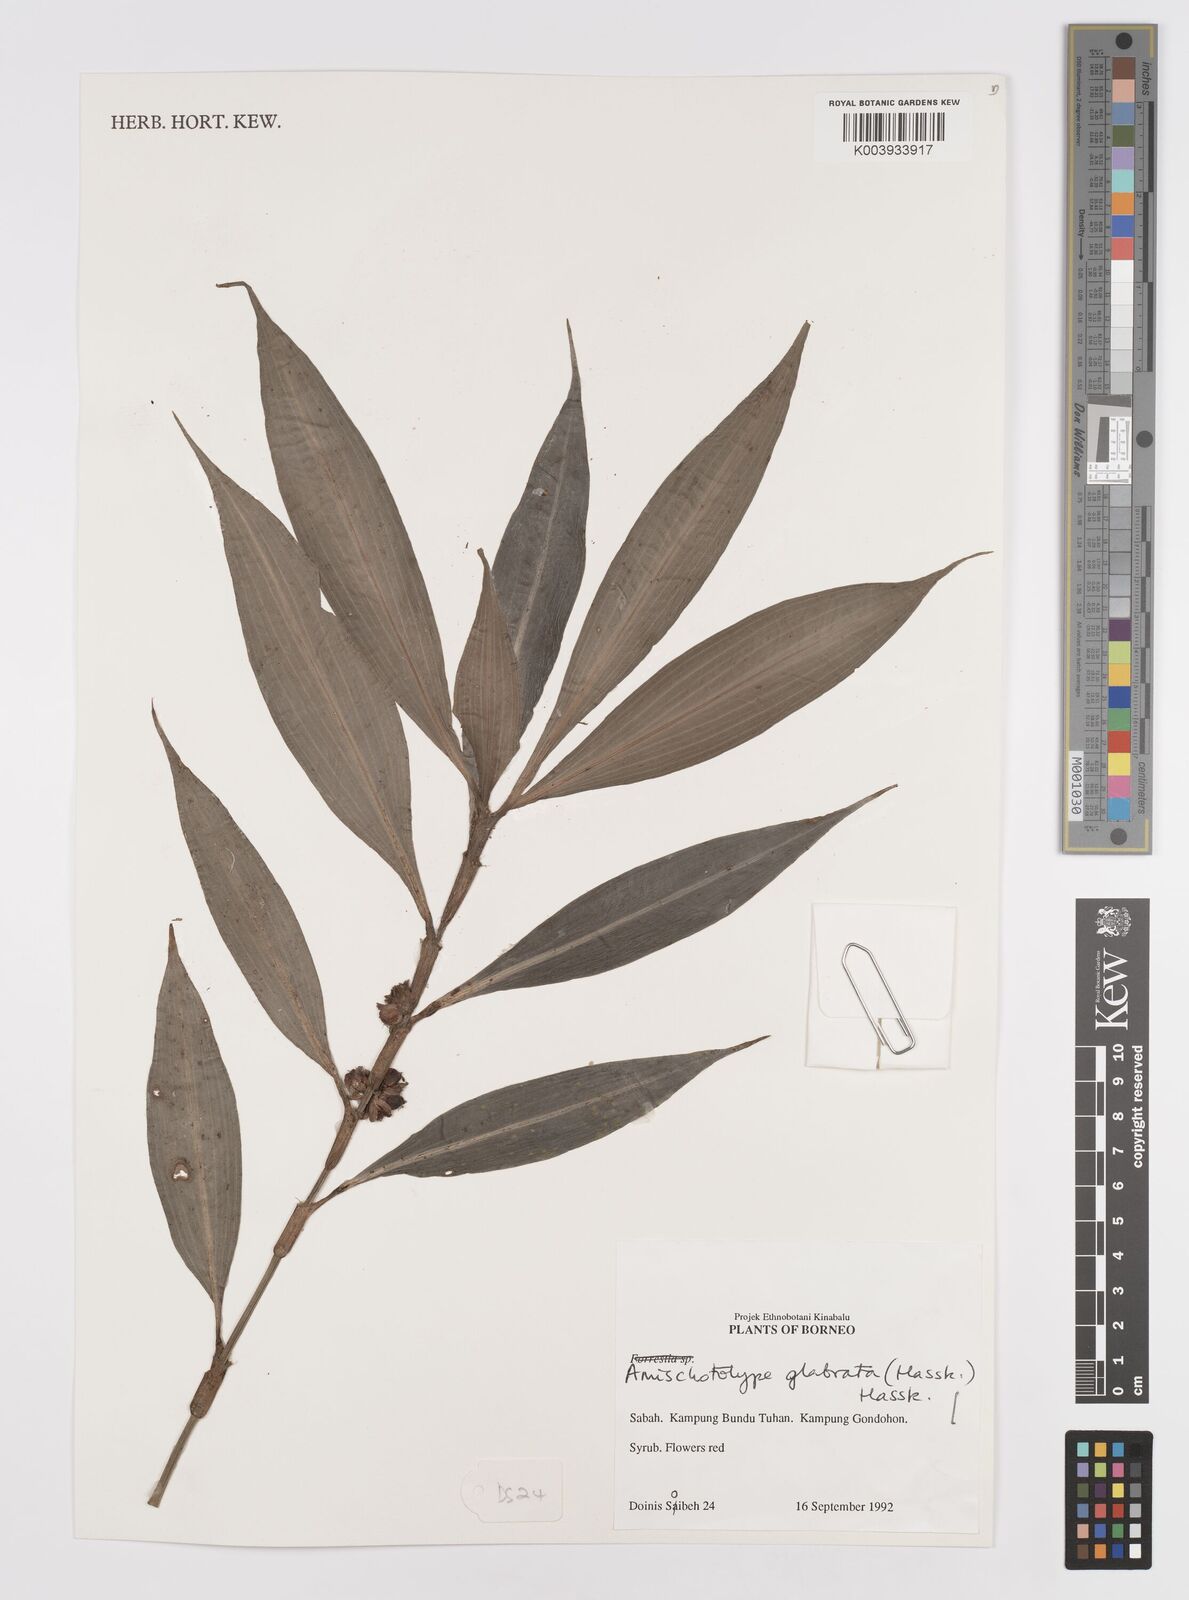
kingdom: Plantae
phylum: Tracheophyta
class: Liliopsida
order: Commelinales
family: Commelinaceae
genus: Amischotolype
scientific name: Amischotolype glabrata
